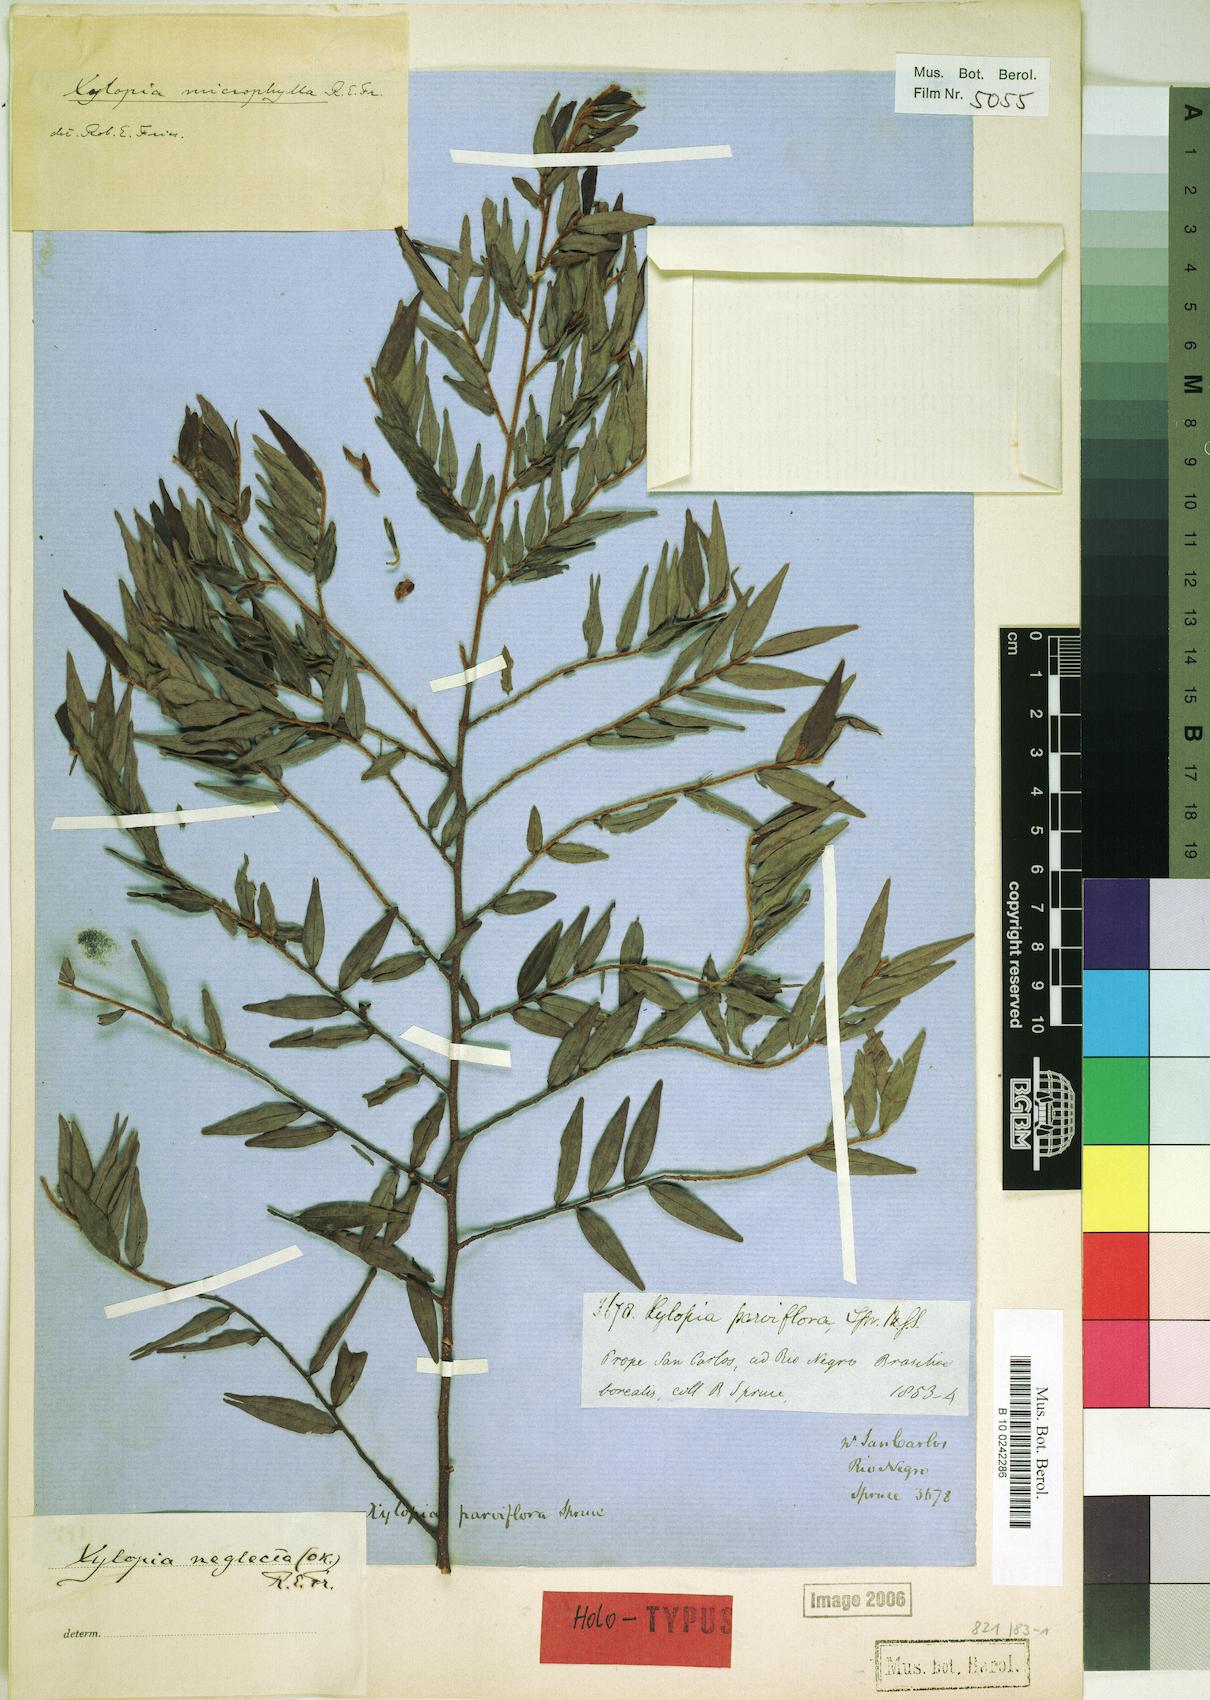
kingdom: Plantae
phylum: Tracheophyta
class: Magnoliopsida
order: Magnoliales
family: Annonaceae
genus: Xylopia
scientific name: Xylopia neglecta
